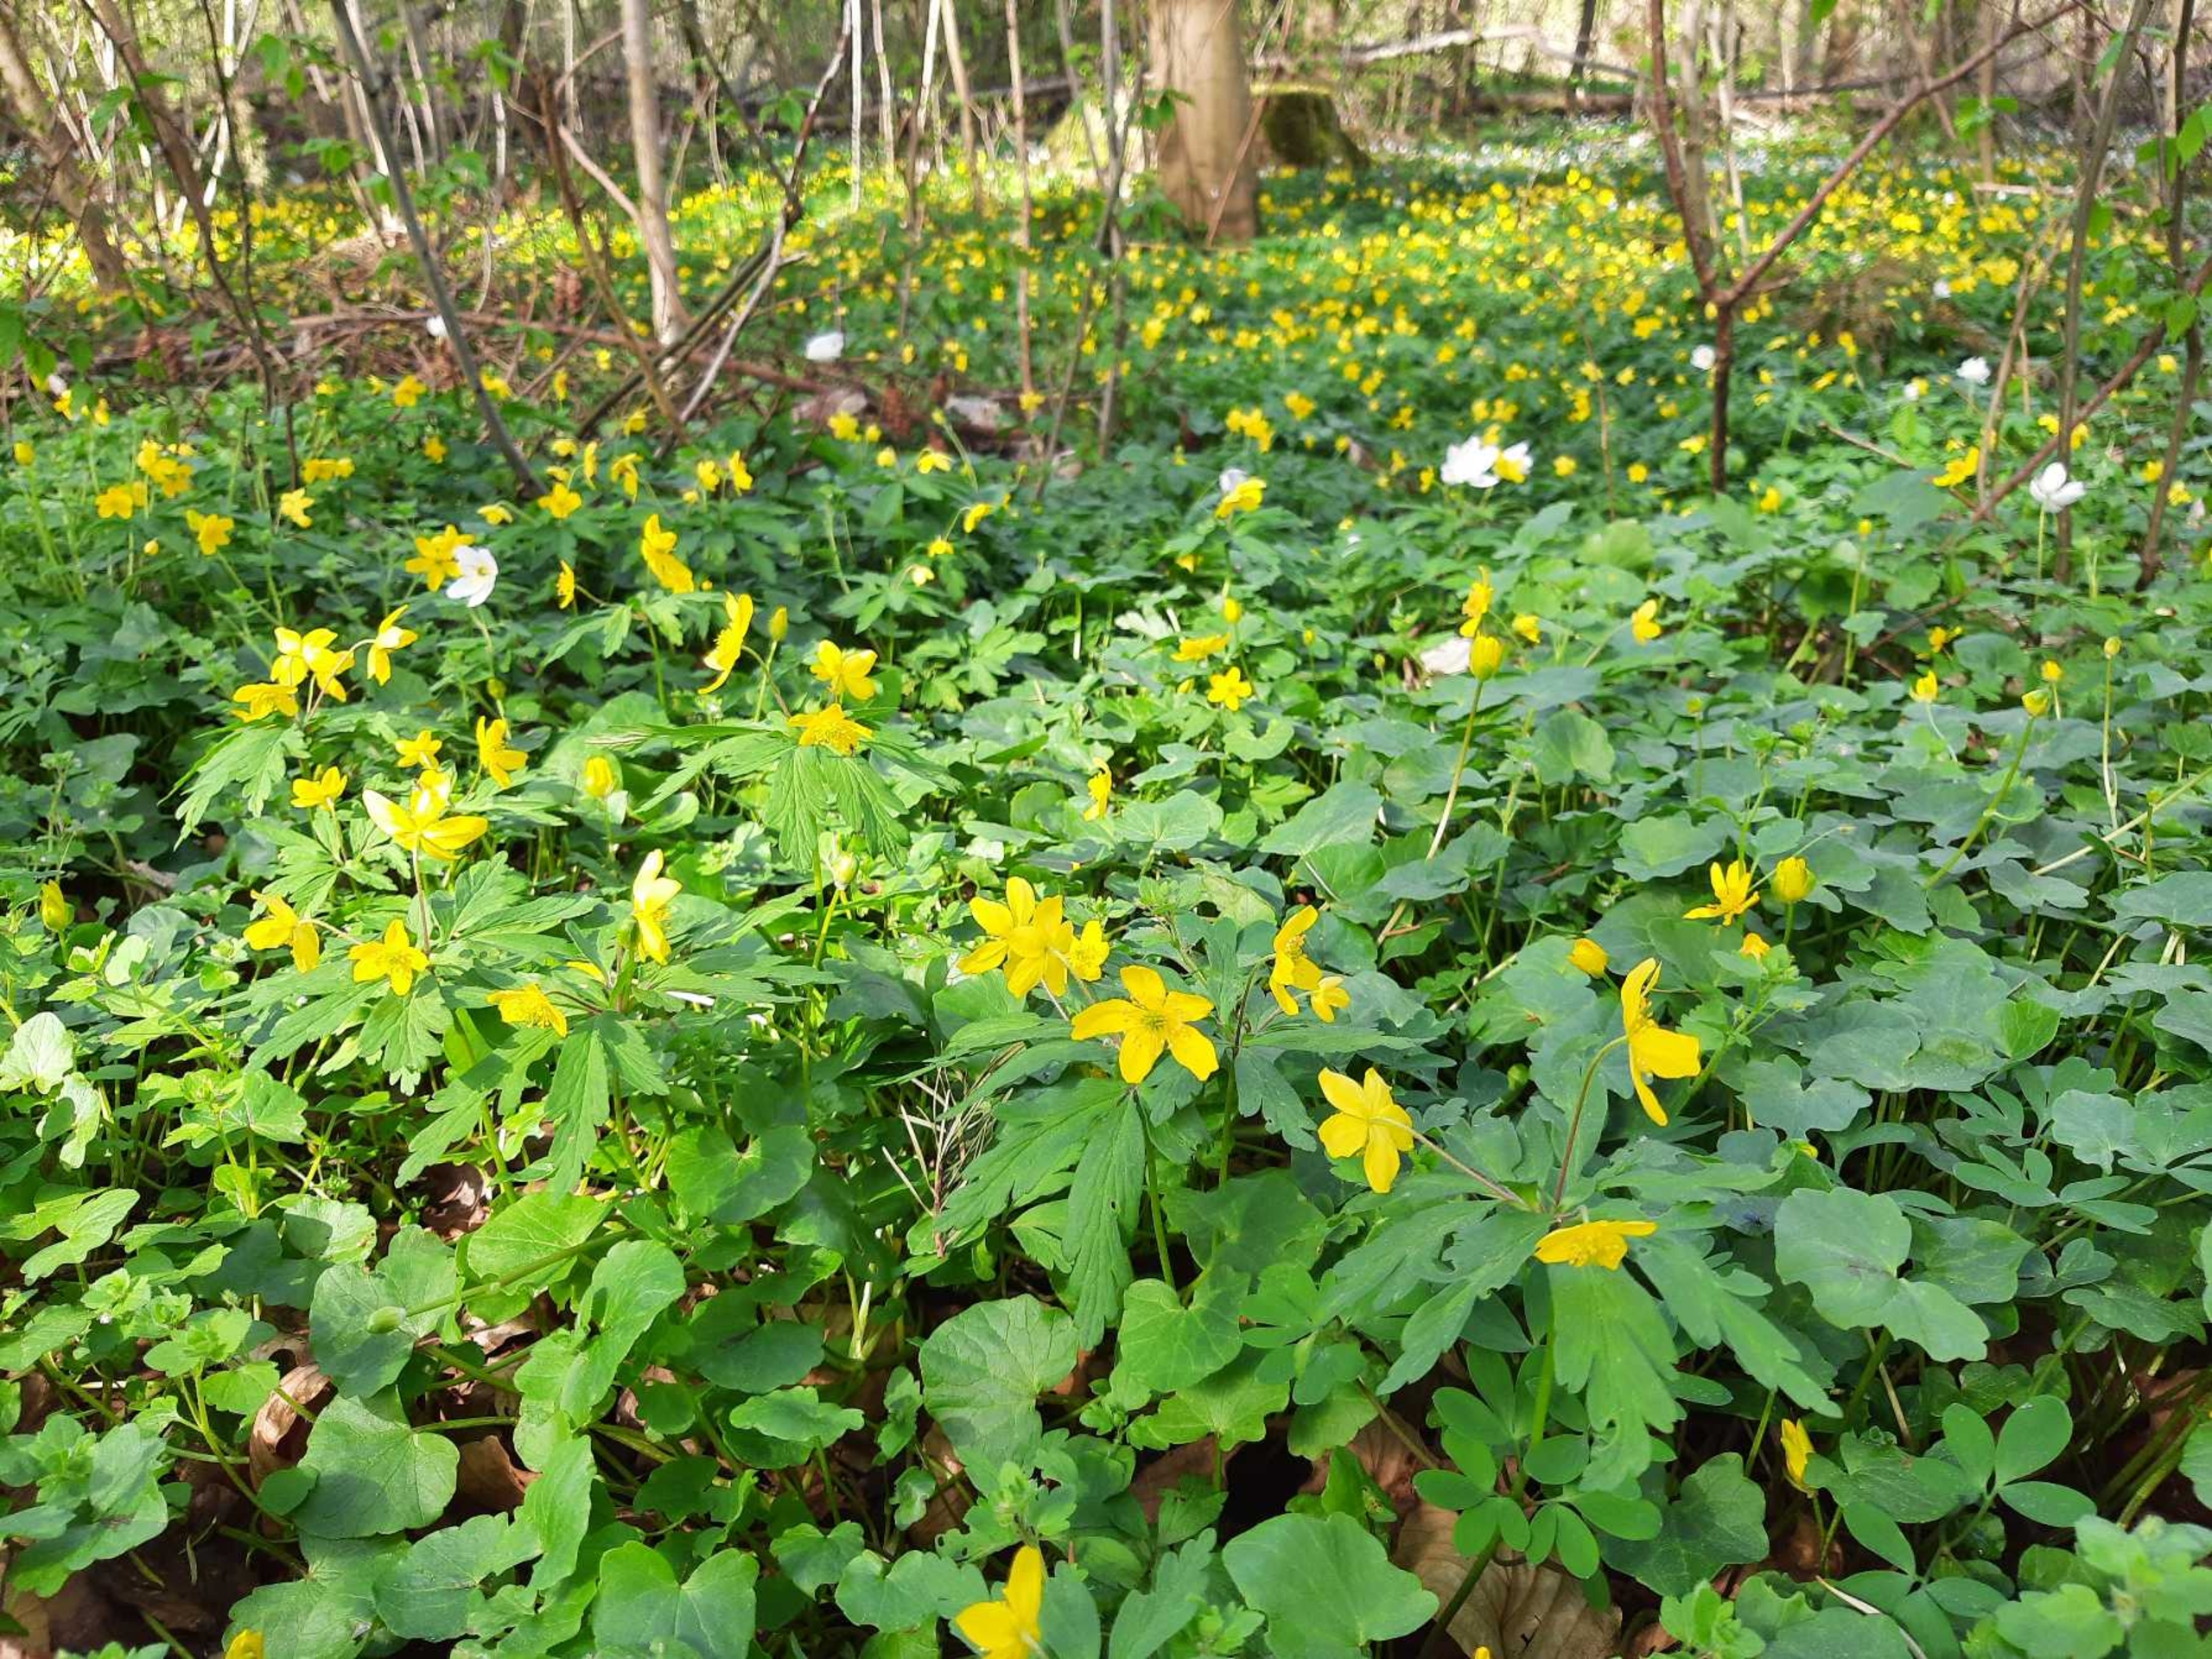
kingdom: Plantae
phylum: Tracheophyta
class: Magnoliopsida
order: Ranunculales
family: Ranunculaceae
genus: Anemone
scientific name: Anemone ranunculoides
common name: Gul anemone
